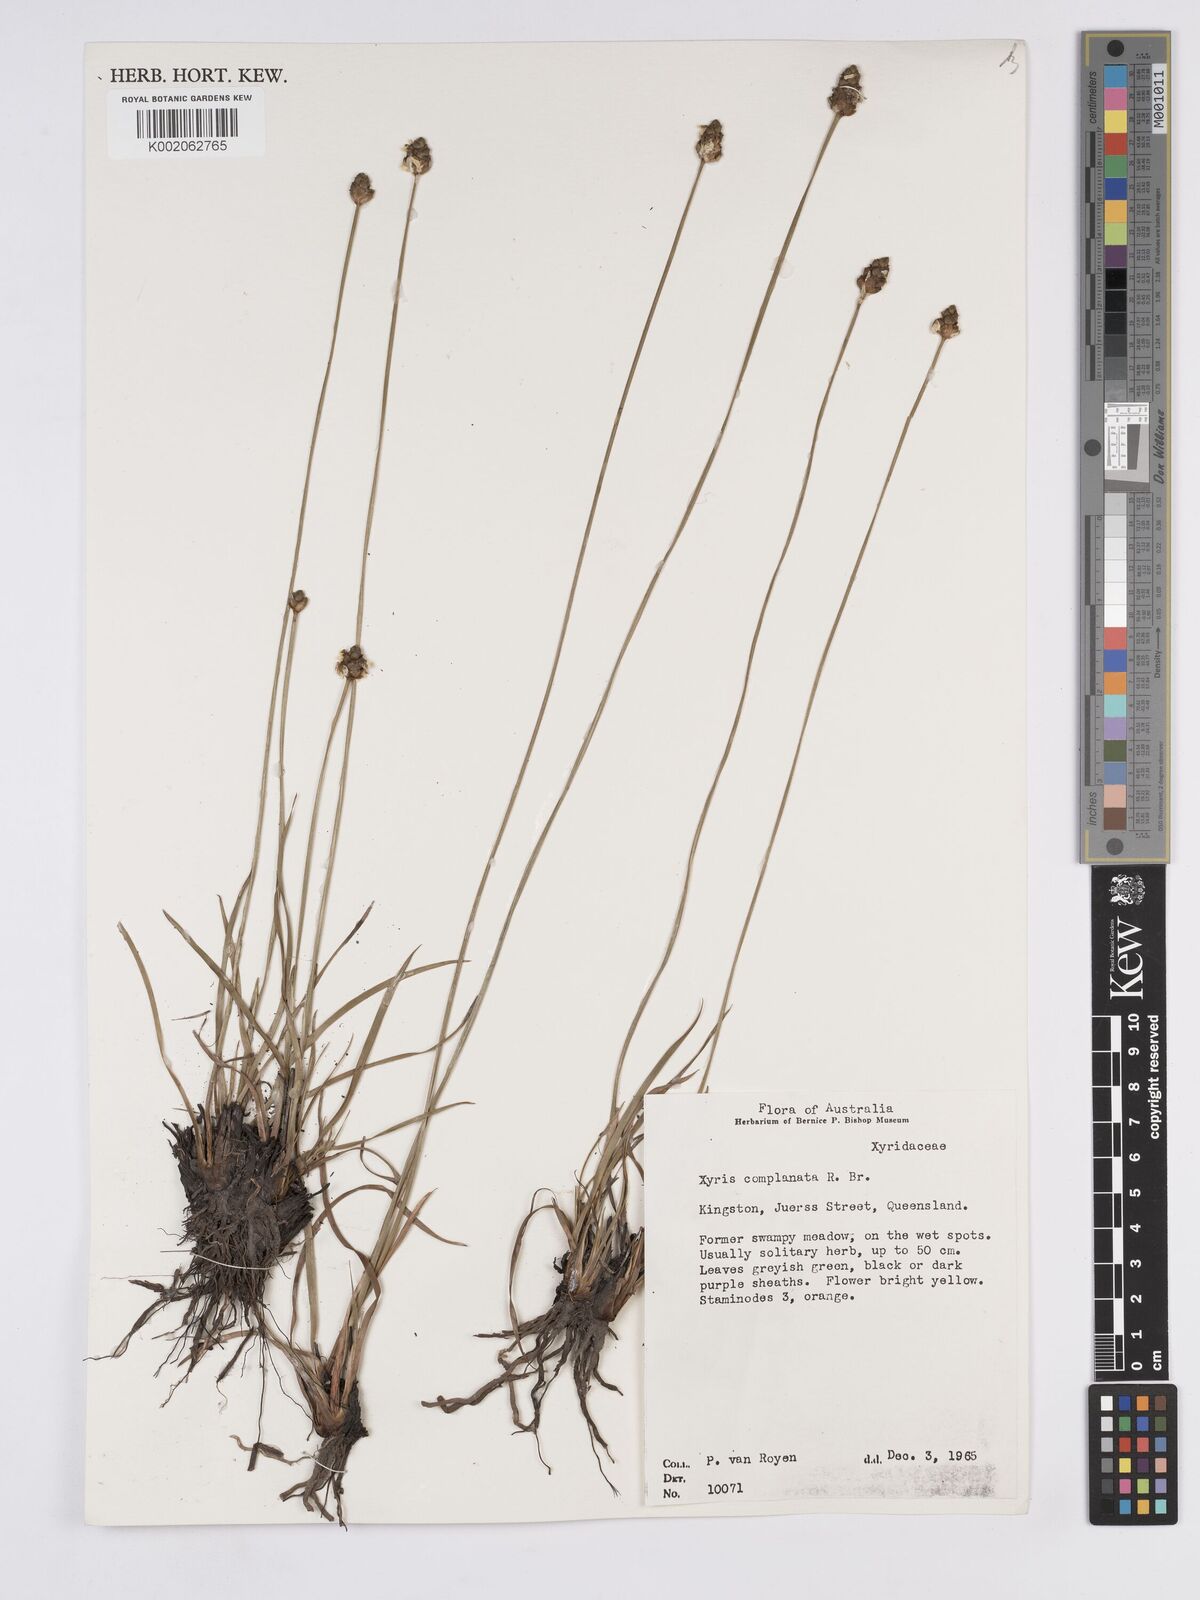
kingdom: Plantae
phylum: Tracheophyta
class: Liliopsida
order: Poales
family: Xyridaceae
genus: Xyris
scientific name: Xyris complanata
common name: Hawai'i yelloweyed grass
